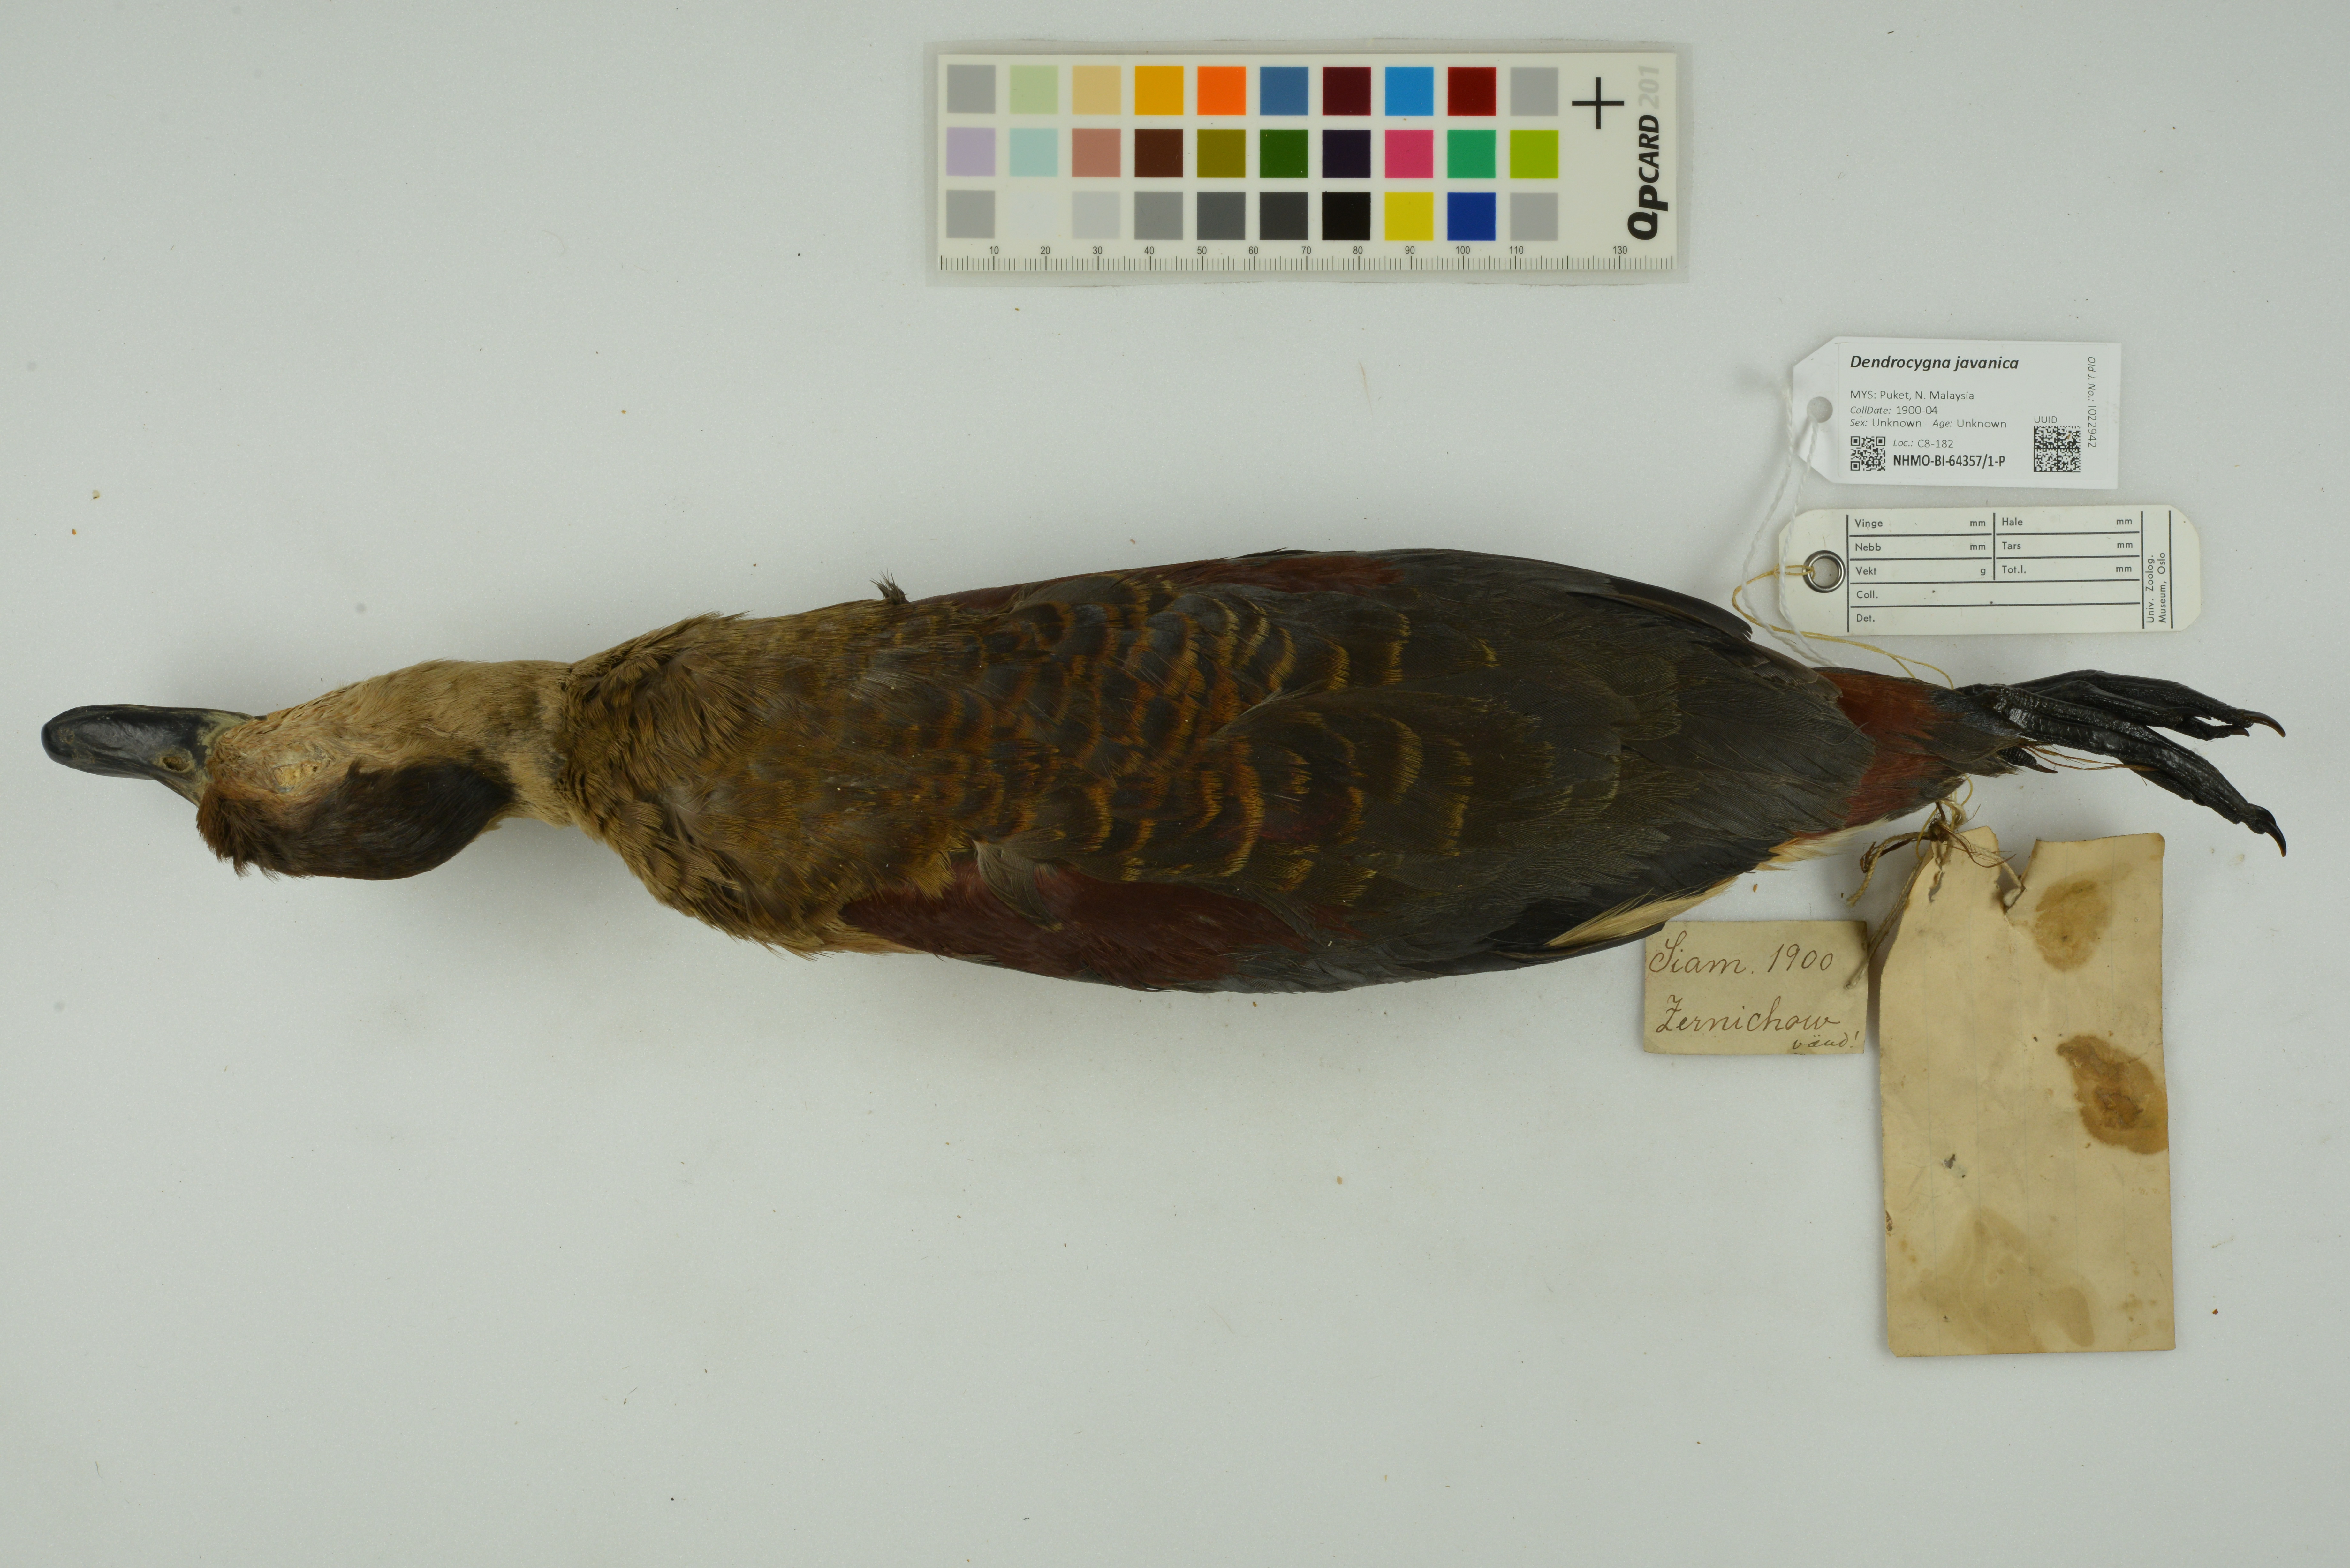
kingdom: Animalia
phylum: Chordata
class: Aves
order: Anseriformes
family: Anatidae
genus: Dendrocygna
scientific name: Dendrocygna javanica
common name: Lesser whistling-duck
